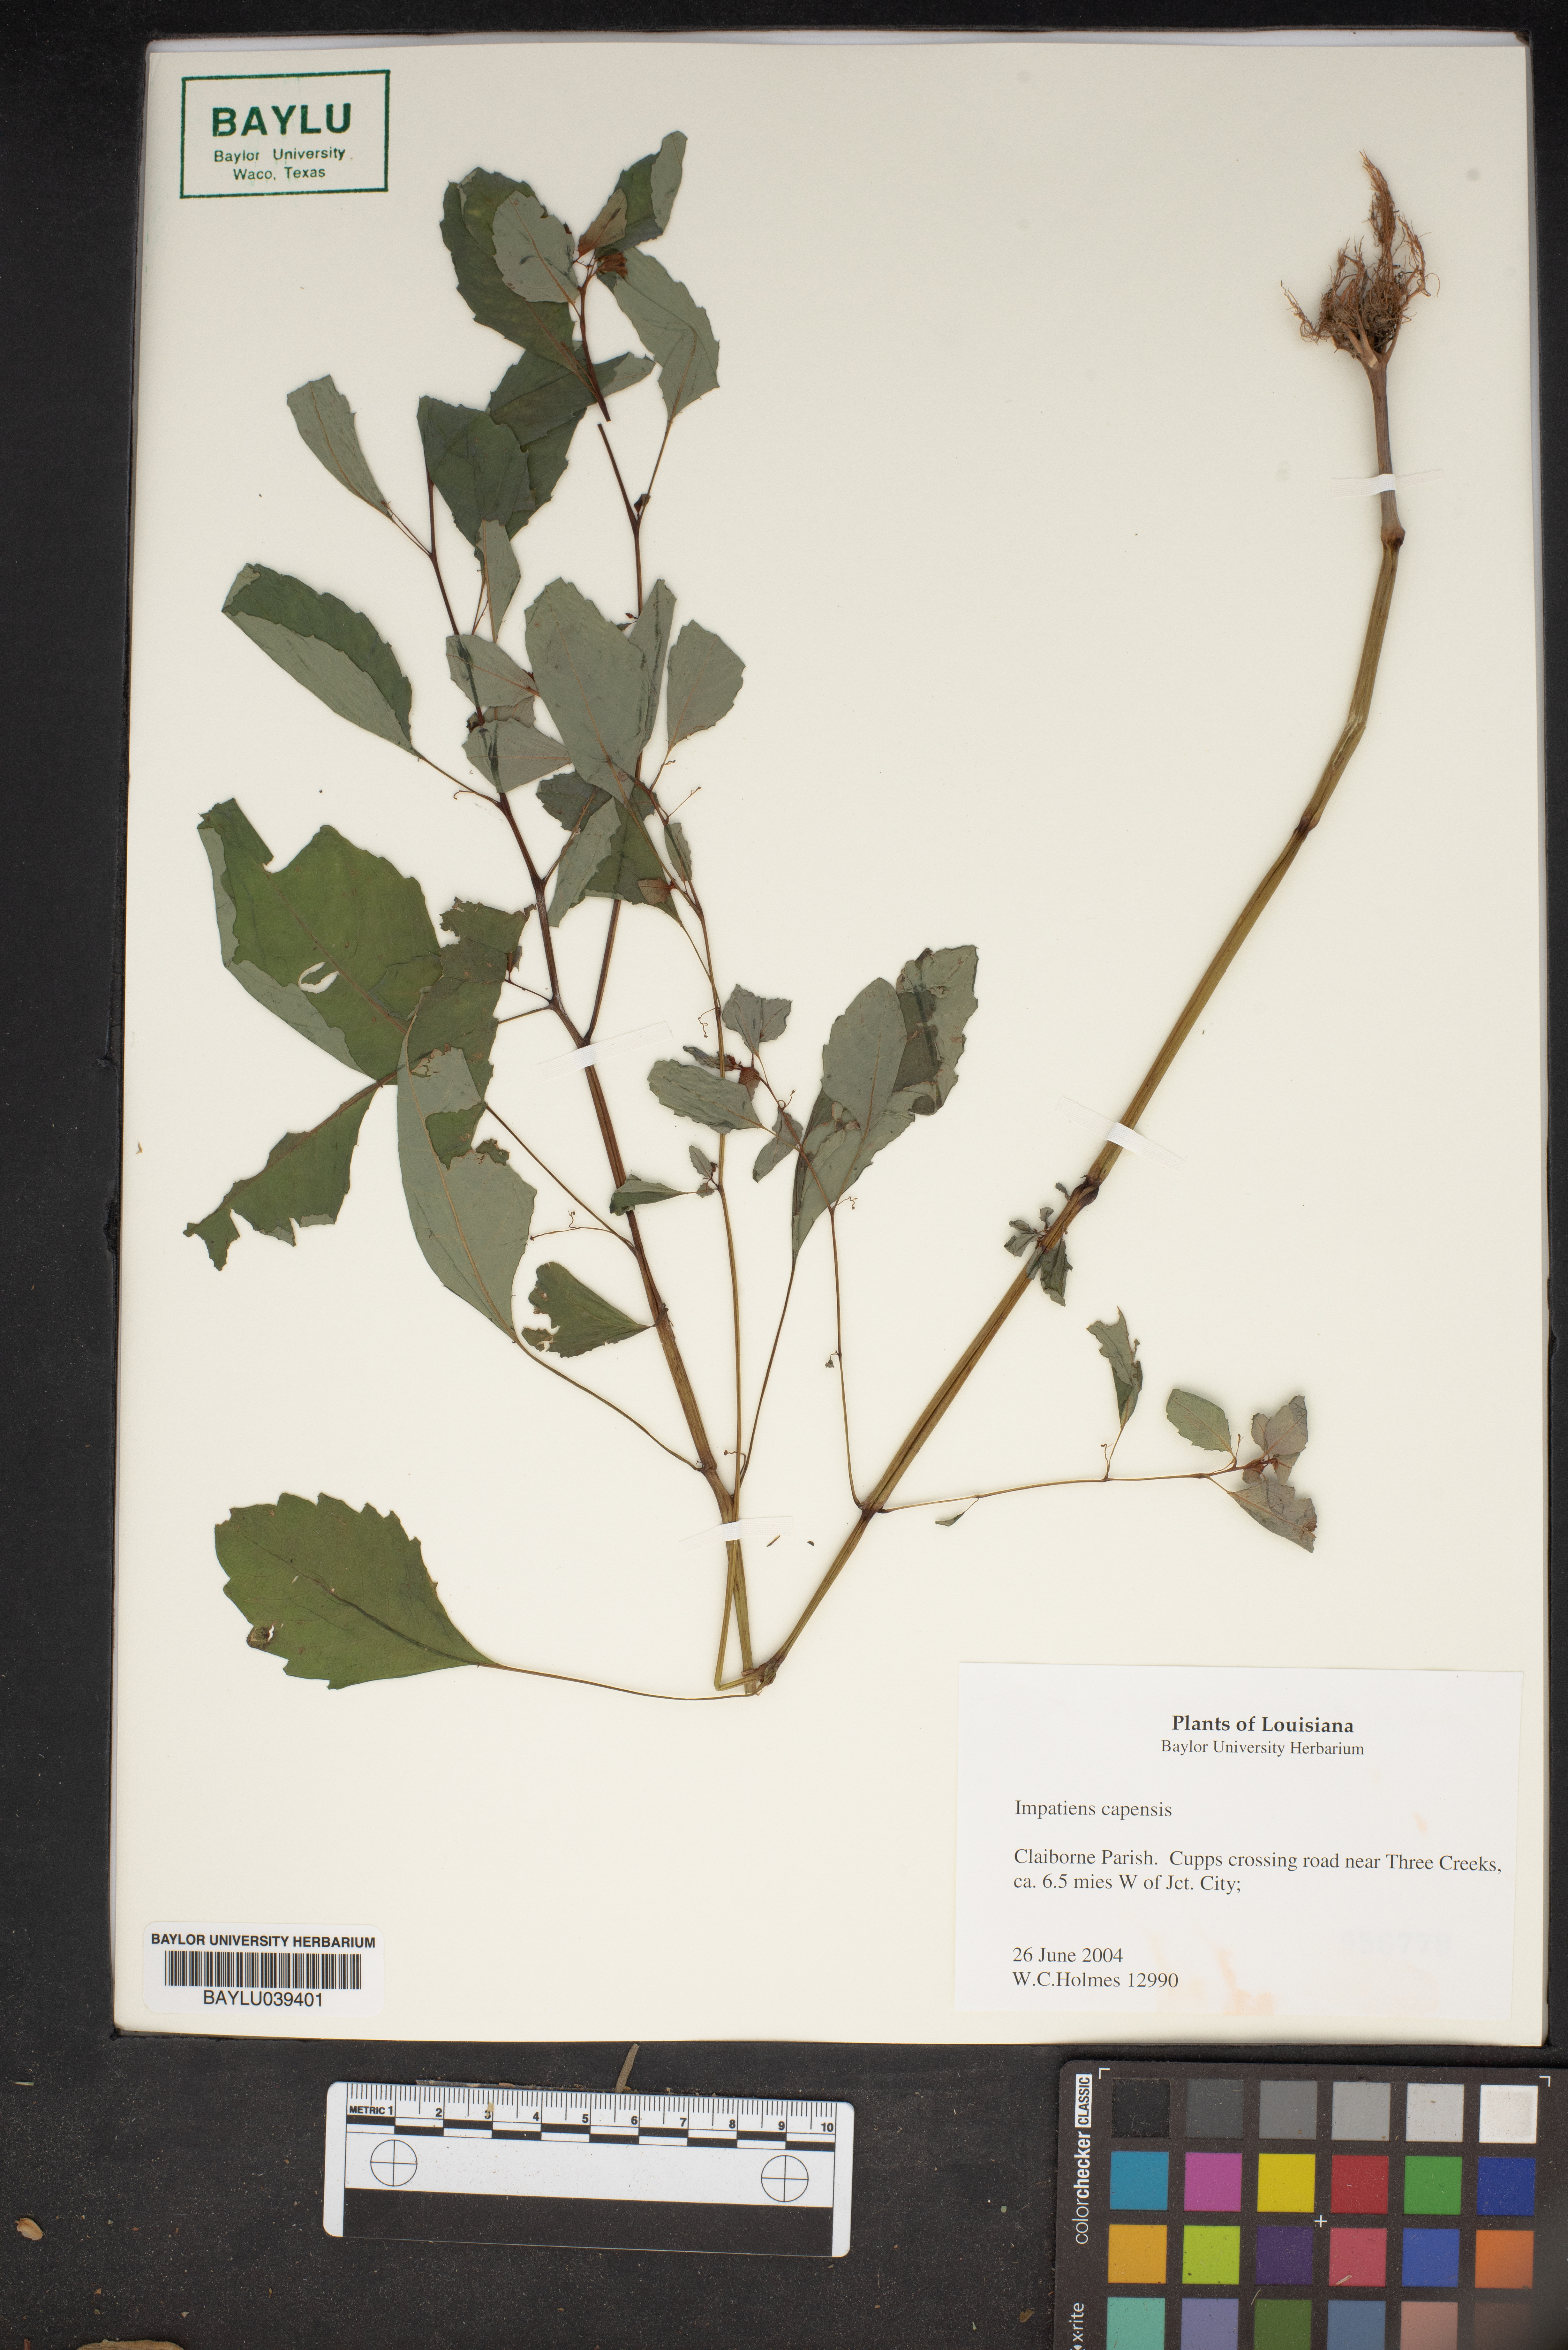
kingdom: Plantae
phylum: Tracheophyta
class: Magnoliopsida
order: Ericales
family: Balsaminaceae
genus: Impatiens
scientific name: Impatiens capensis
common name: Orange balsam
